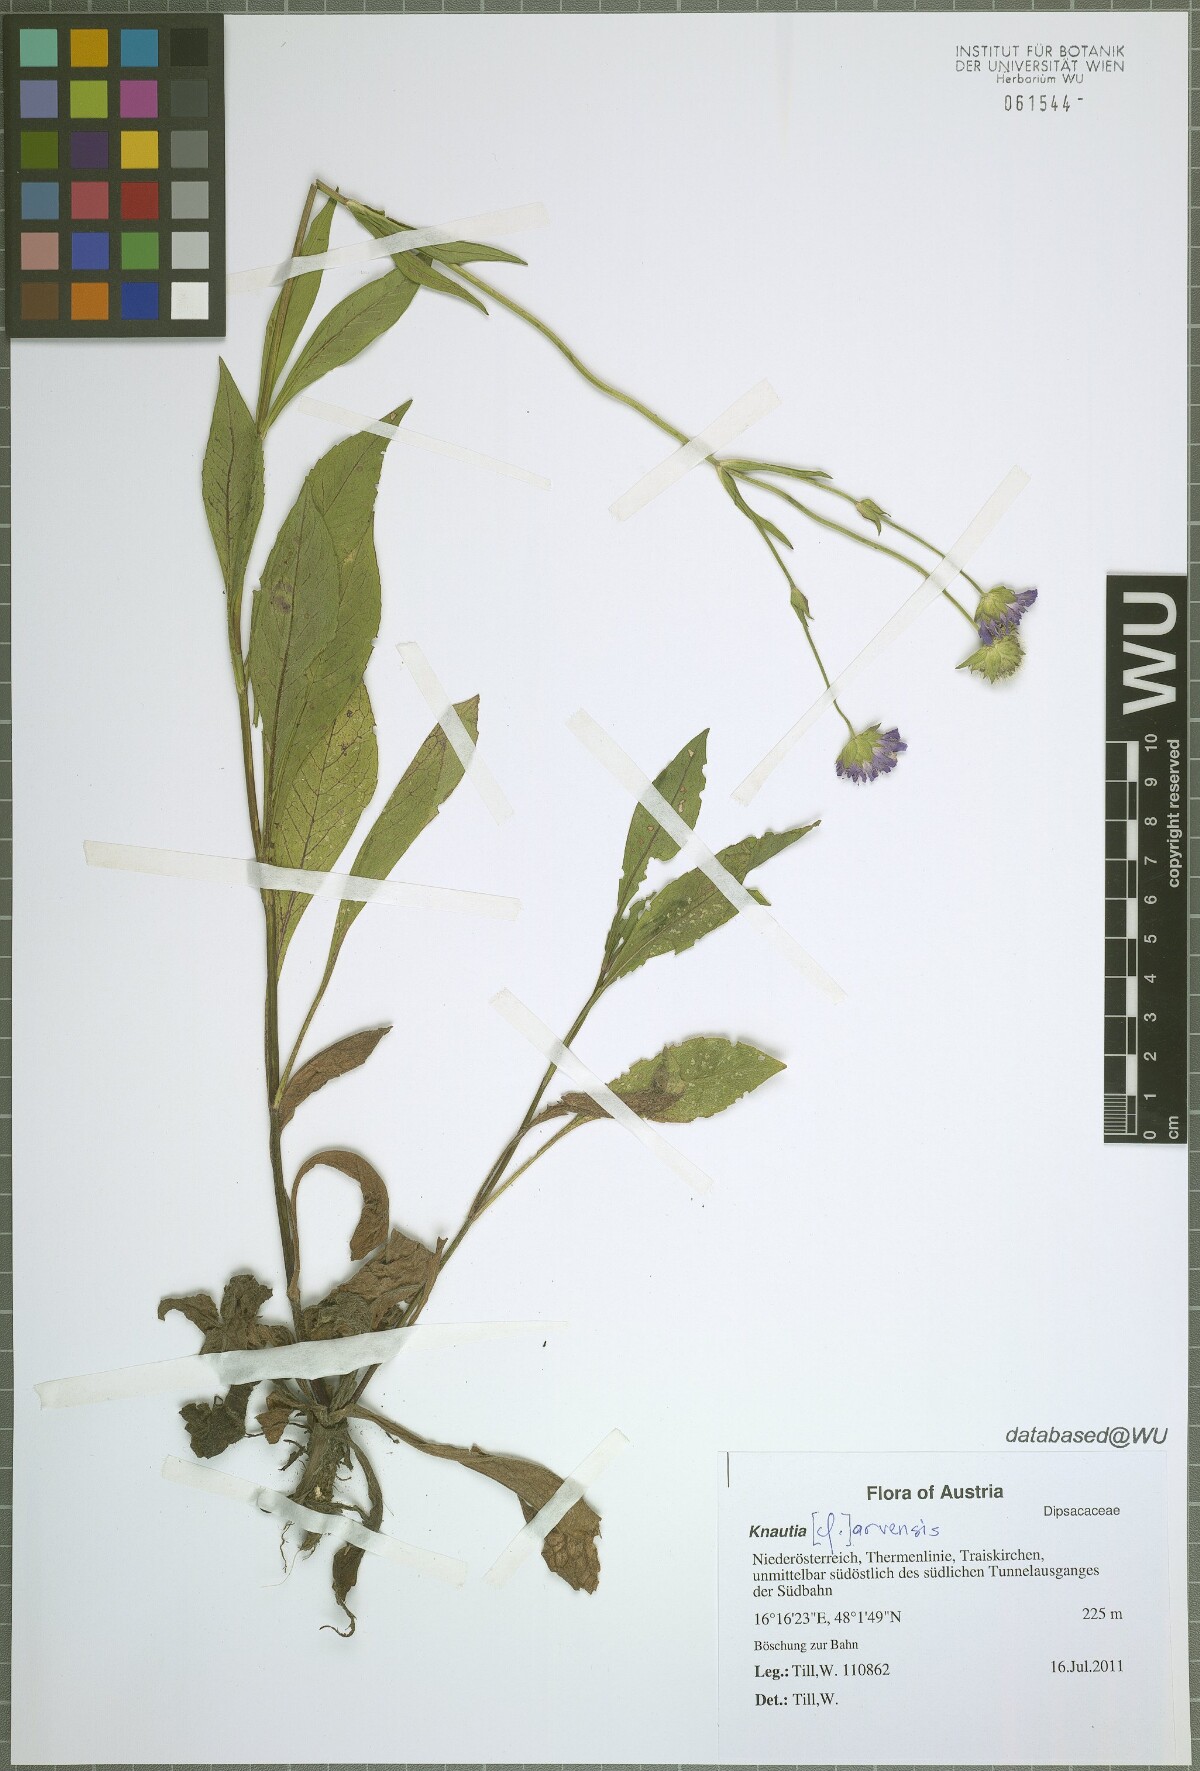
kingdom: Plantae
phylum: Tracheophyta
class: Magnoliopsida
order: Dipsacales
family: Caprifoliaceae
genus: Knautia
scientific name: Knautia arvensis
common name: Field scabiosa
